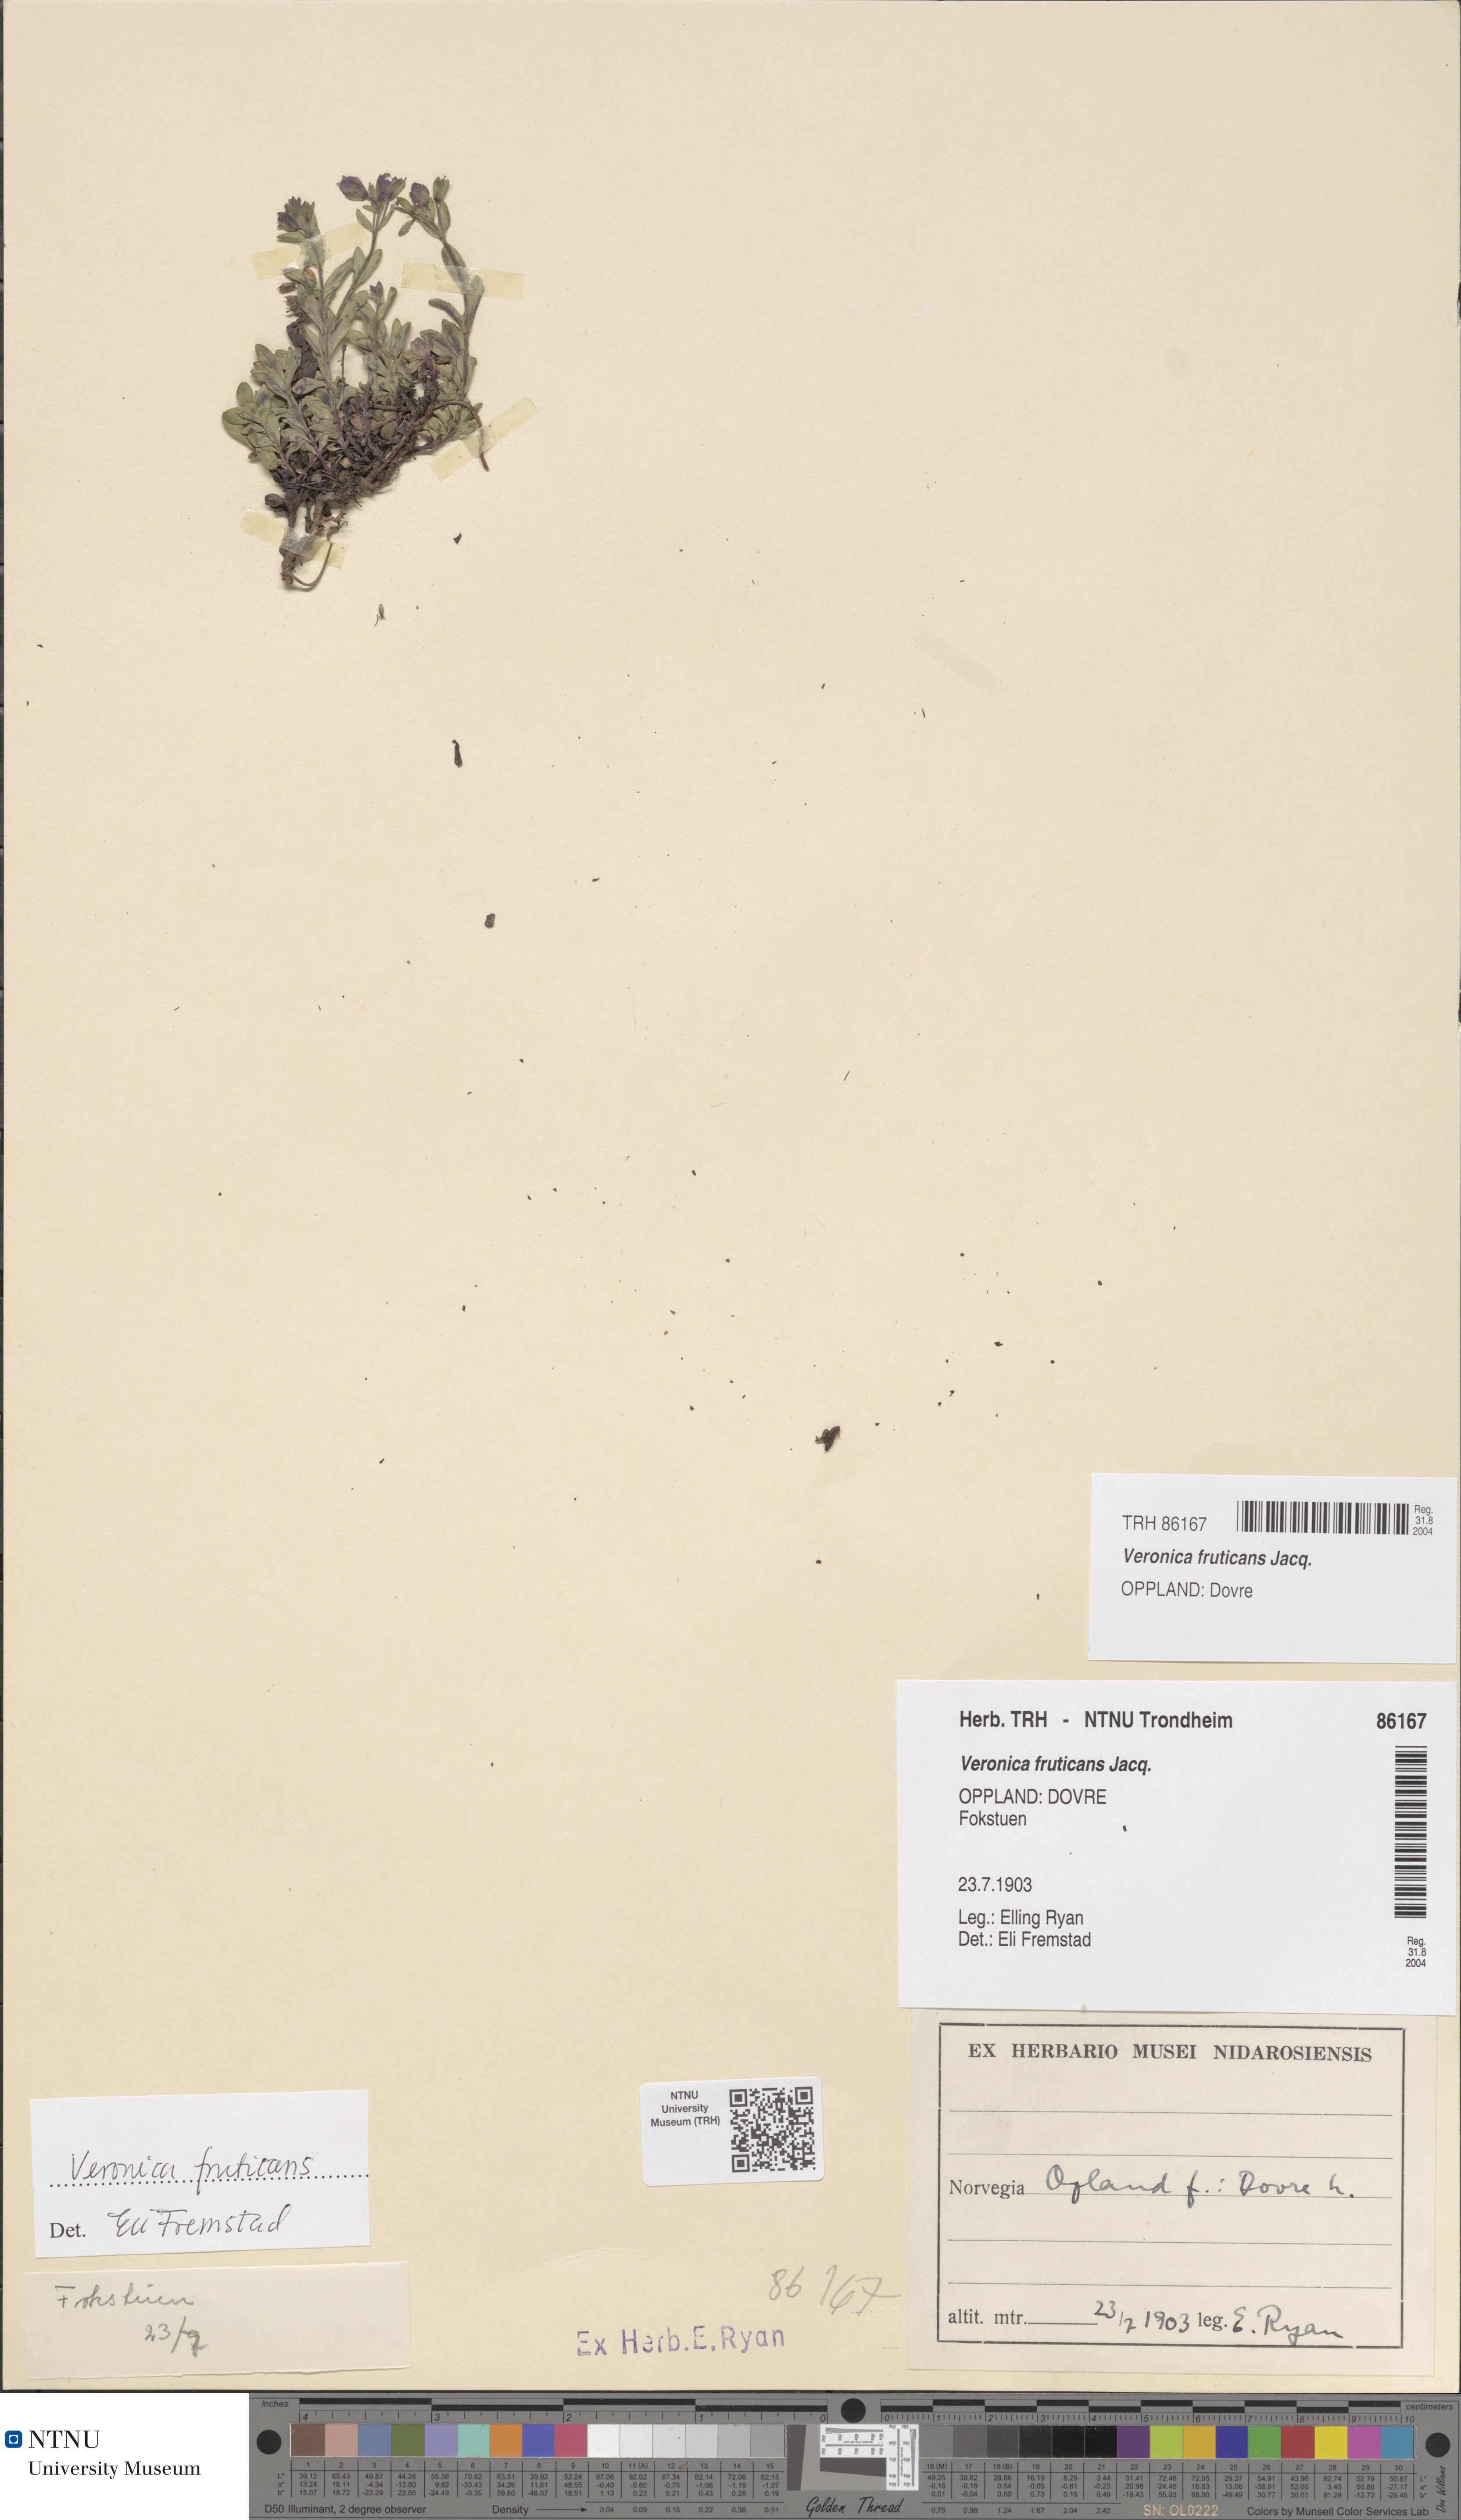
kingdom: Plantae
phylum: Tracheophyta
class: Magnoliopsida
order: Lamiales
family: Plantaginaceae
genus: Veronica
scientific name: Veronica fruticans
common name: Rock speedwell
